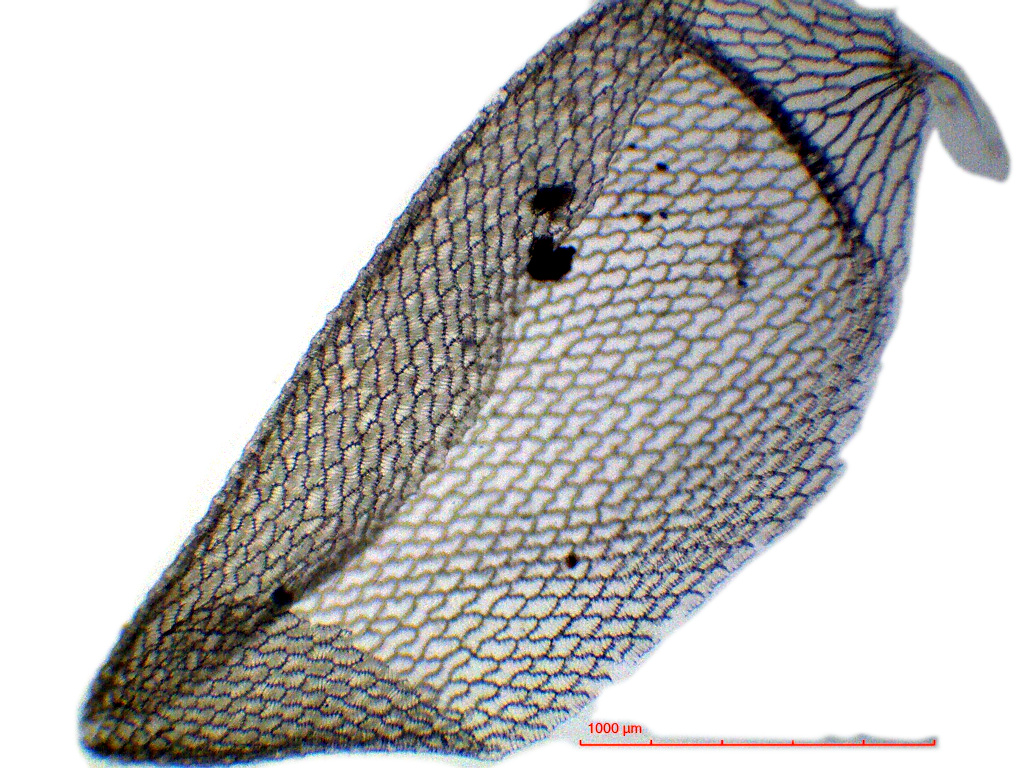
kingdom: Plantae
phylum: Bryophyta
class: Sphagnopsida
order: Sphagnales
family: Sphagnaceae
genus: Sphagnum
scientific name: Sphagnum perichaetiale
